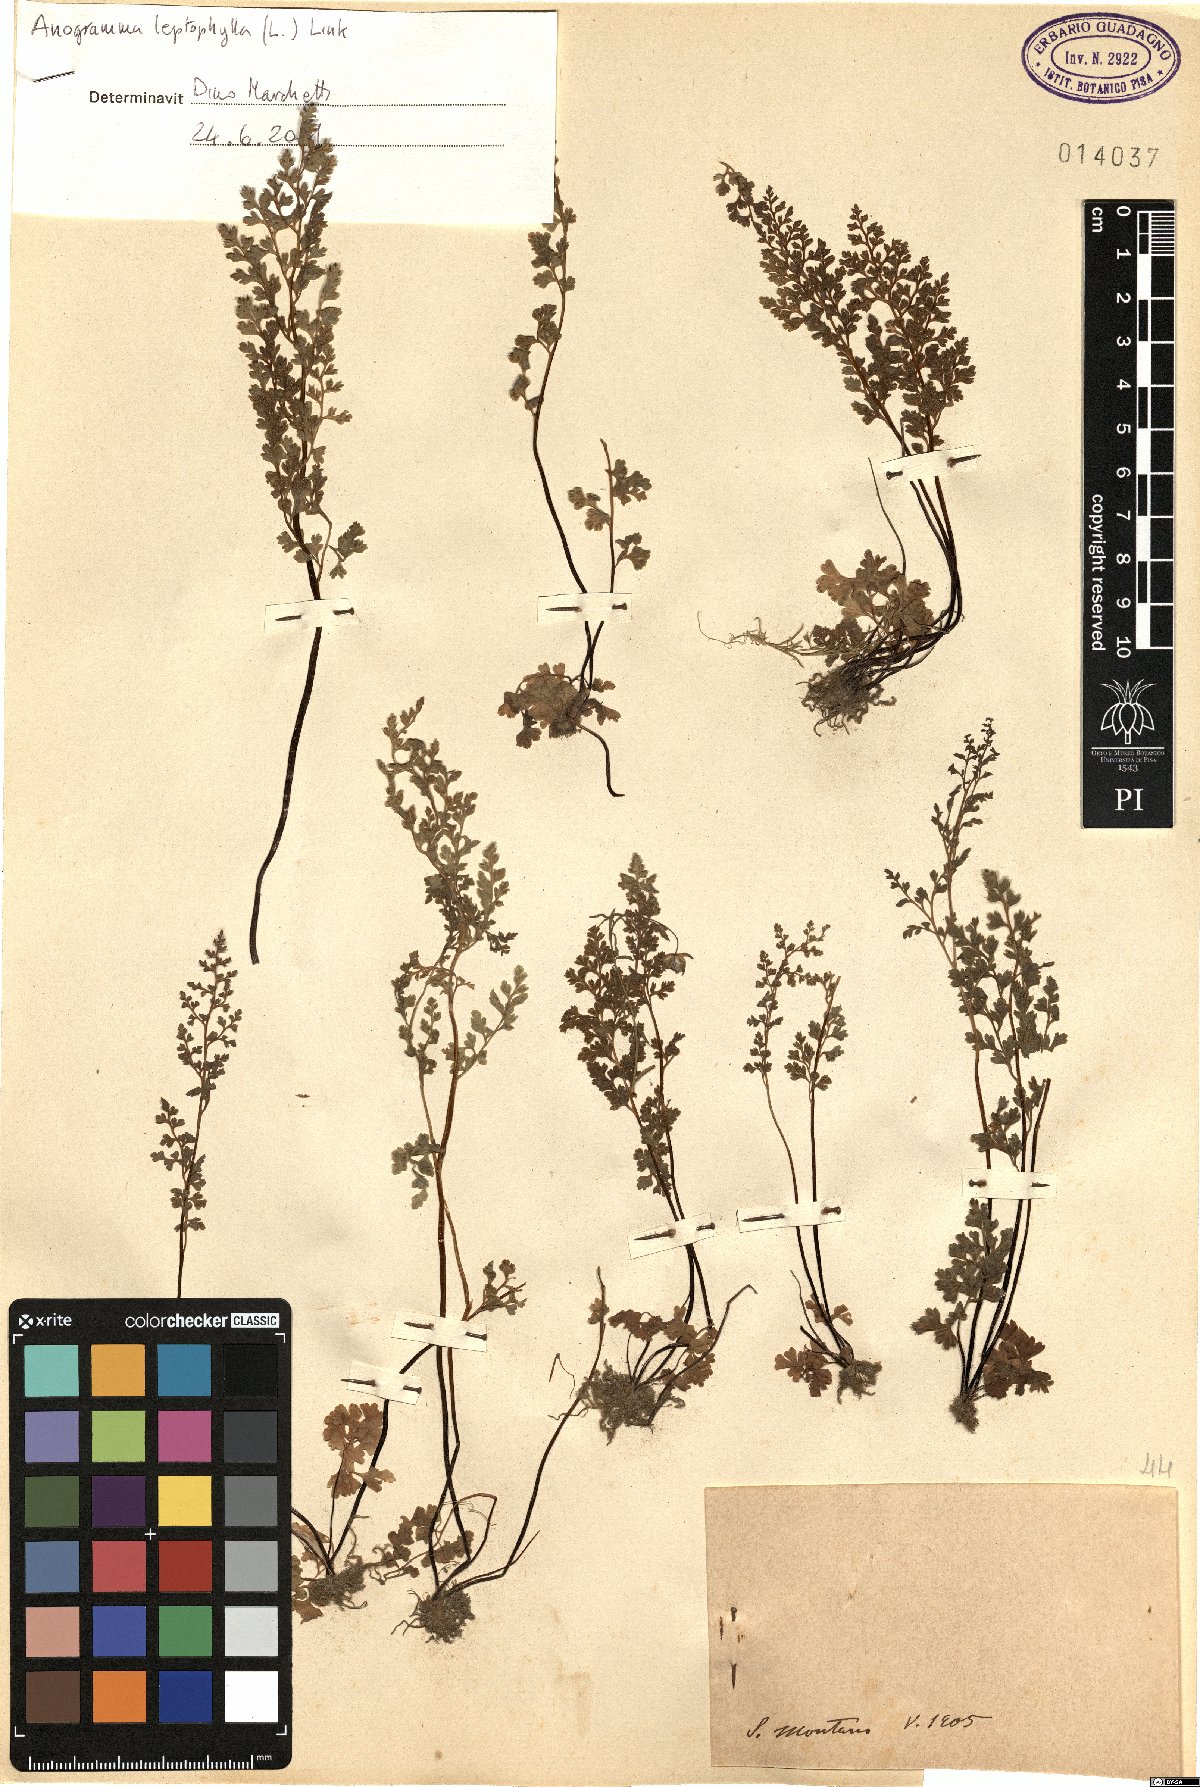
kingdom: Plantae
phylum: Tracheophyta
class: Polypodiopsida
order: Polypodiales
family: Pteridaceae
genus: Anogramma
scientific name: Anogramma leptophylla
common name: Jersey fern
